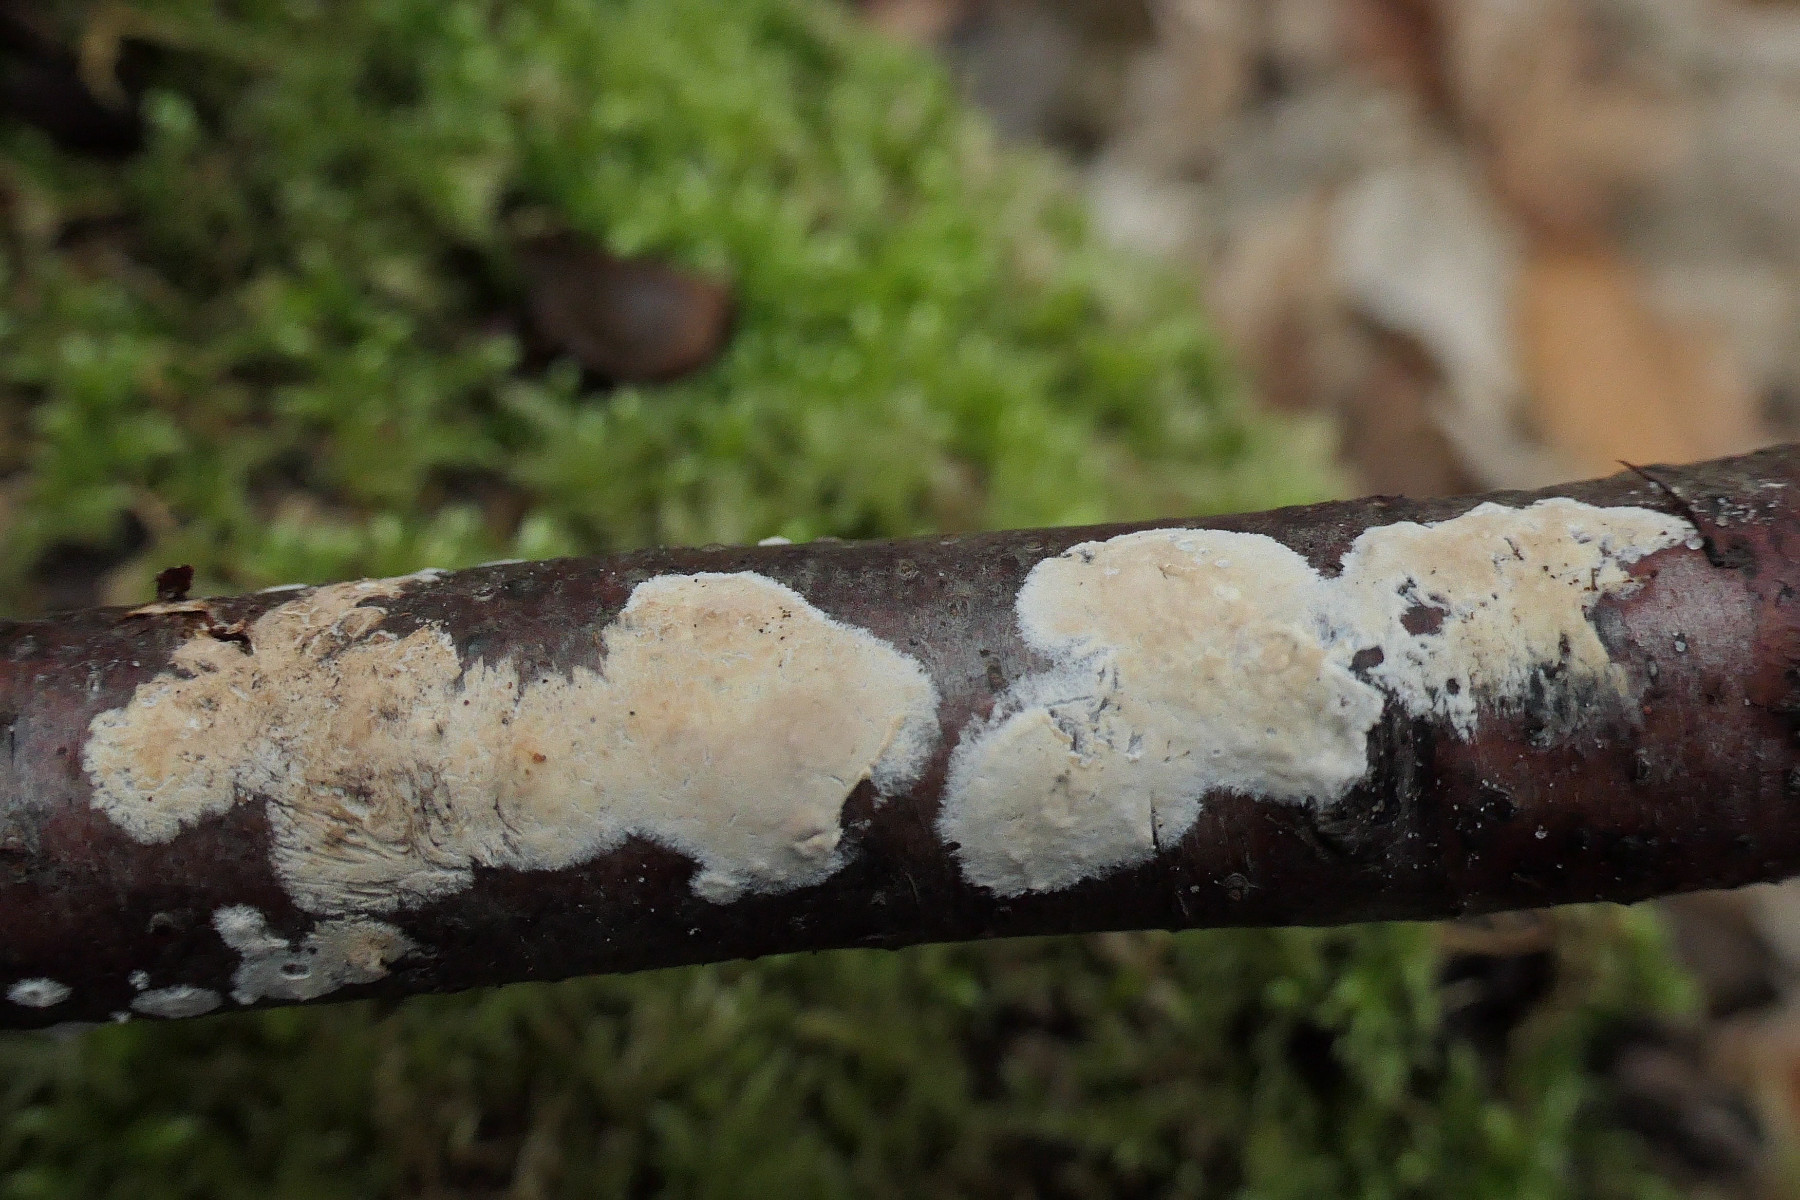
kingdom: Fungi
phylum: Basidiomycota
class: Agaricomycetes
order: Agaricales
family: Physalacriaceae
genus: Cylindrobasidium
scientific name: Cylindrobasidium evolvens
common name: sprækkehinde
